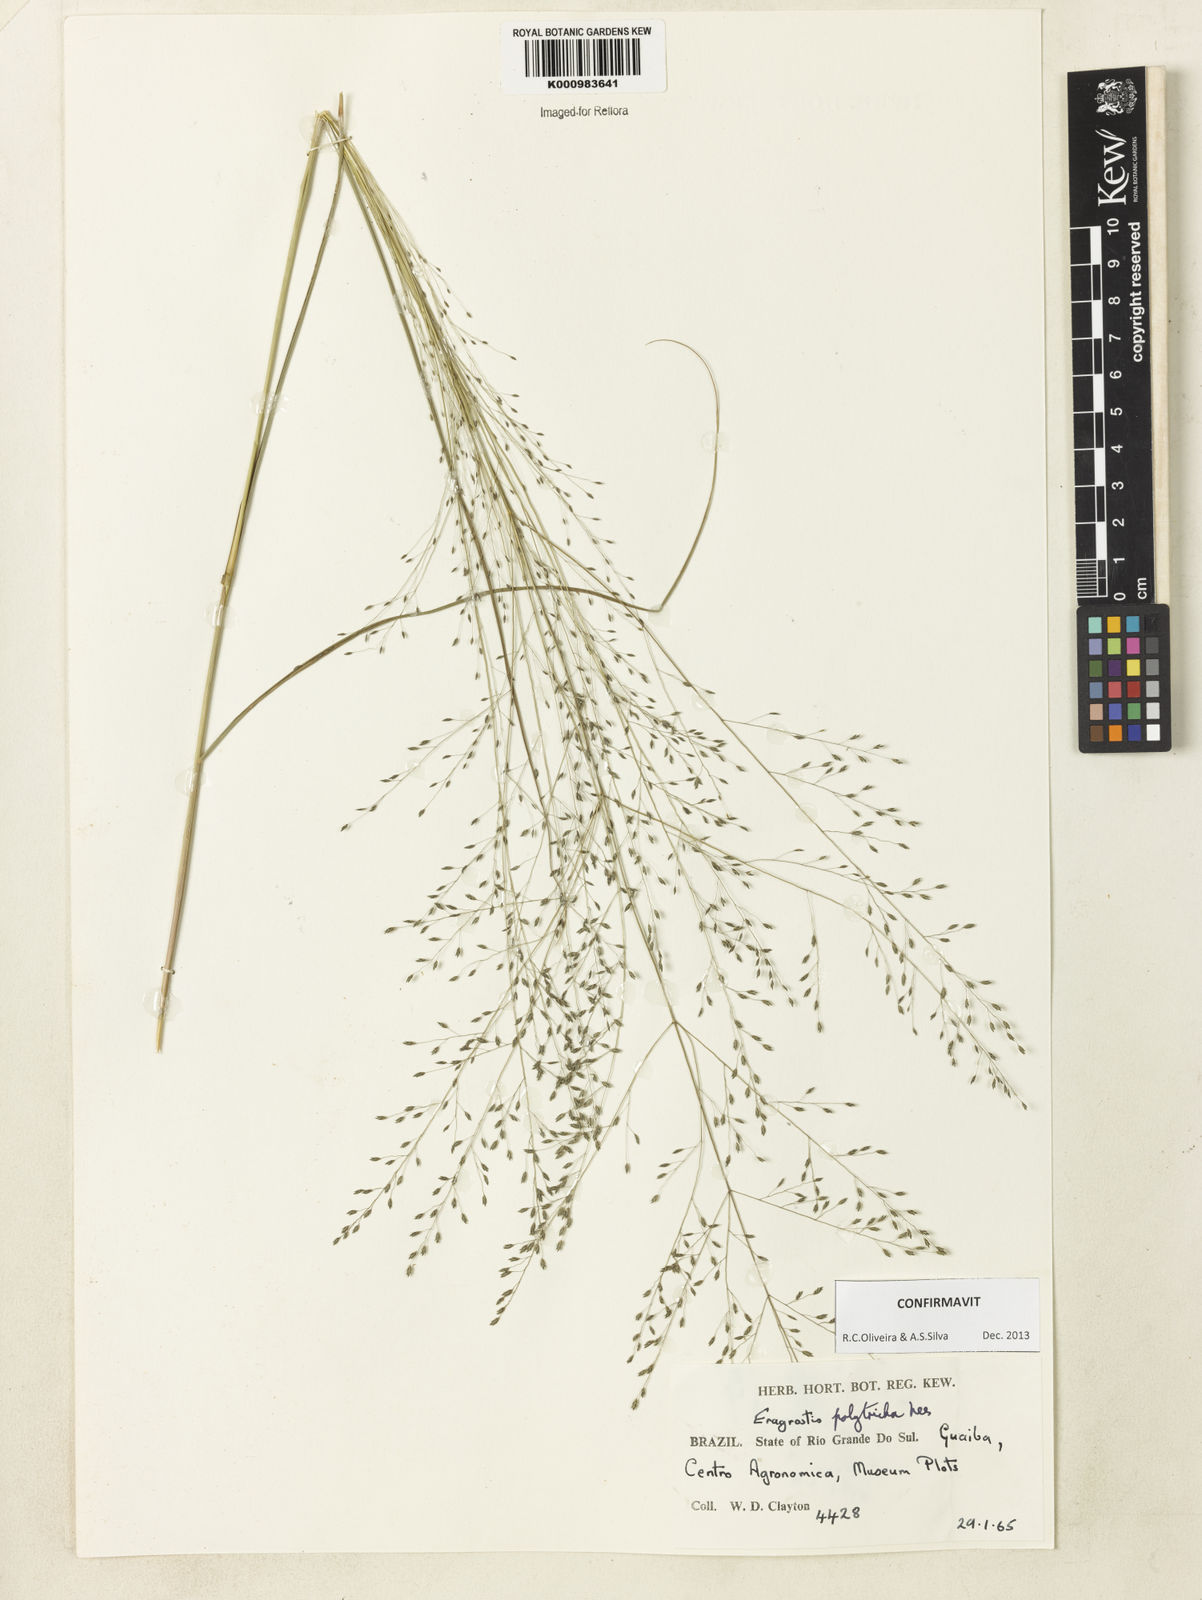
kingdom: Plantae
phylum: Tracheophyta
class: Liliopsida
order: Poales
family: Poaceae
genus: Eragrostis
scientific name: Eragrostis polytricha
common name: Hairy-sheath love grass
